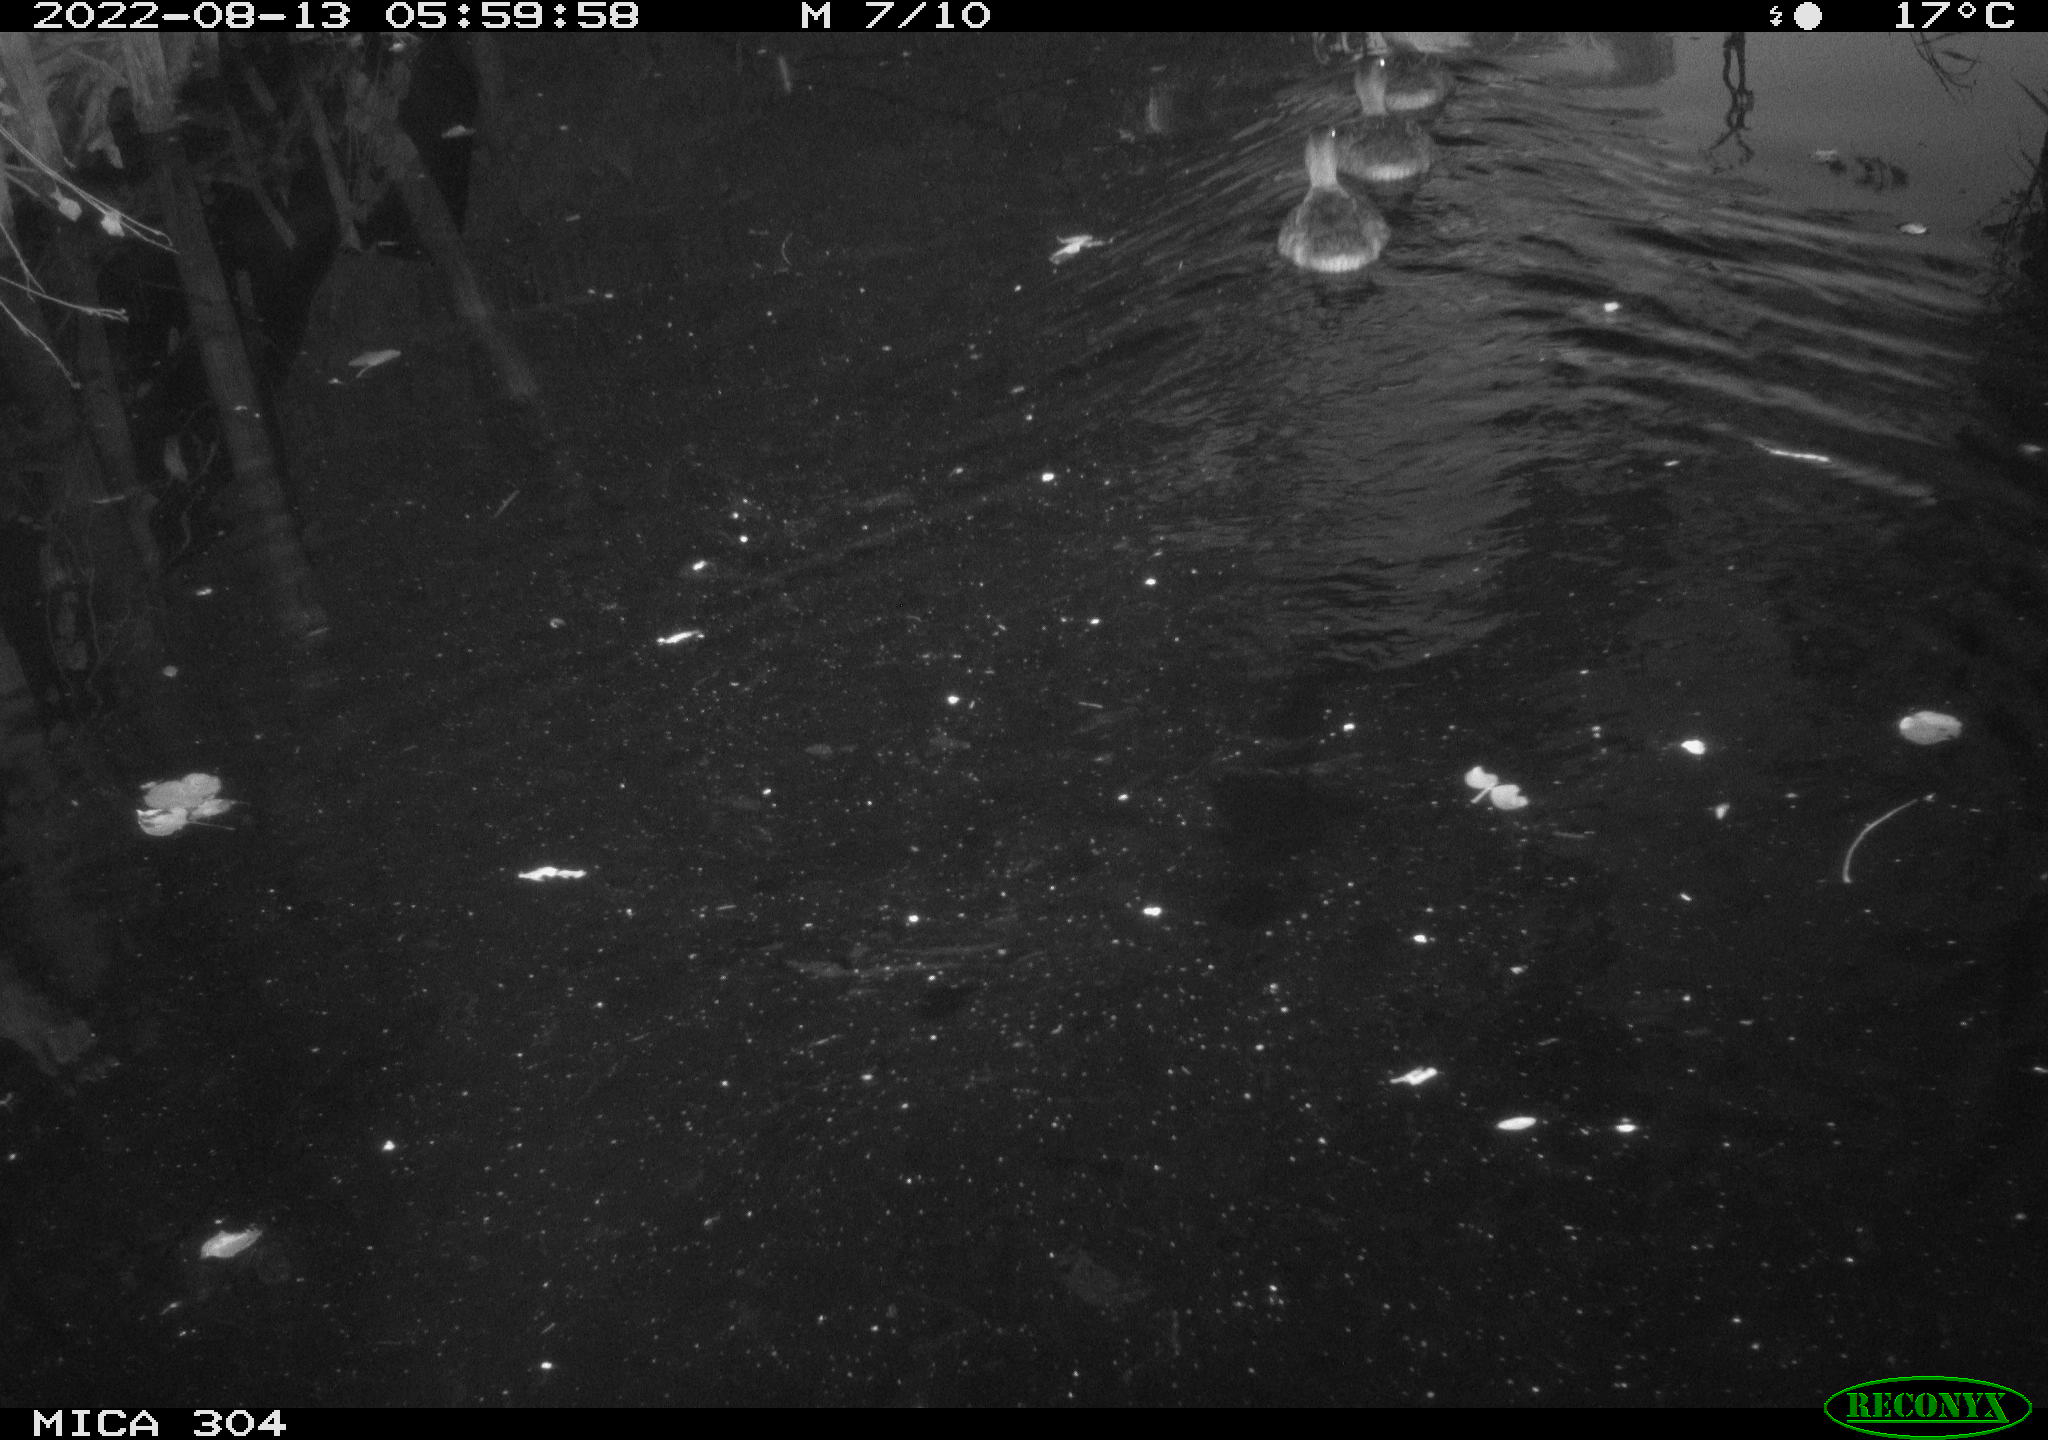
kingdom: Animalia
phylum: Chordata
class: Aves
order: Anseriformes
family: Anatidae
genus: Anas
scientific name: Anas platyrhynchos
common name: Mallard
